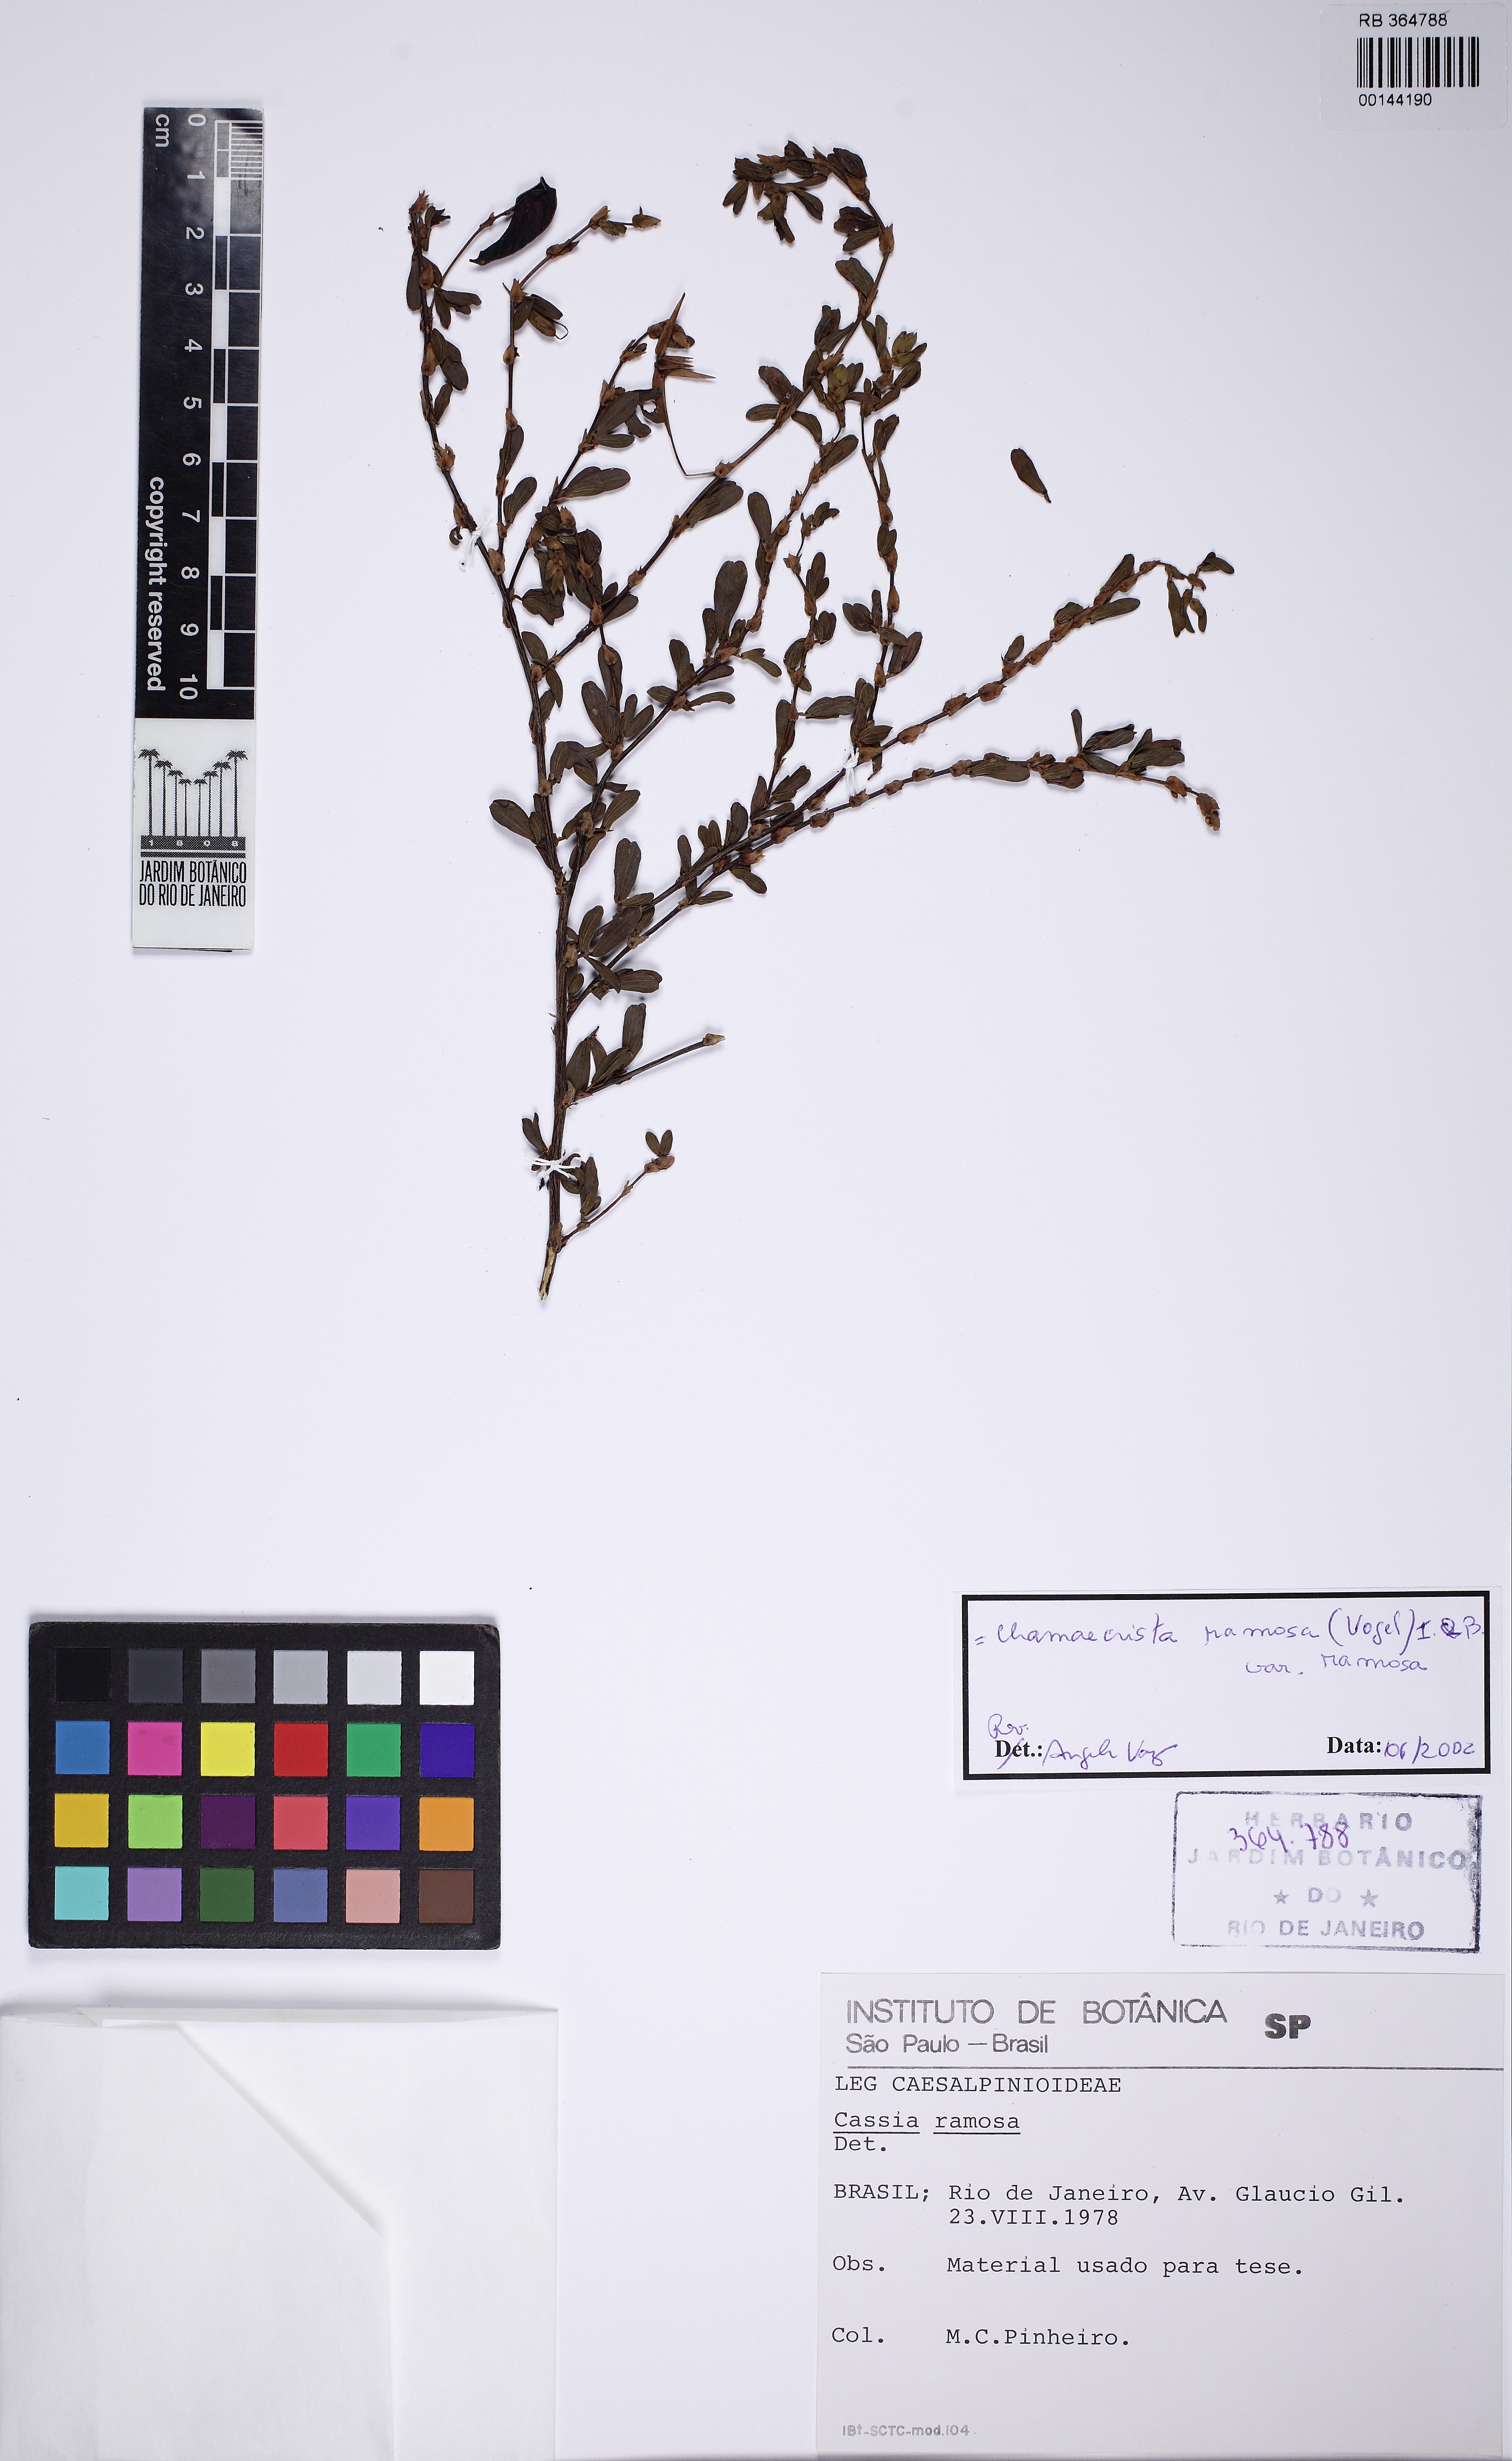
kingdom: Plantae
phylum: Tracheophyta
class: Magnoliopsida
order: Fabales
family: Fabaceae
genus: Chamaecrista
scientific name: Chamaecrista ramosa
